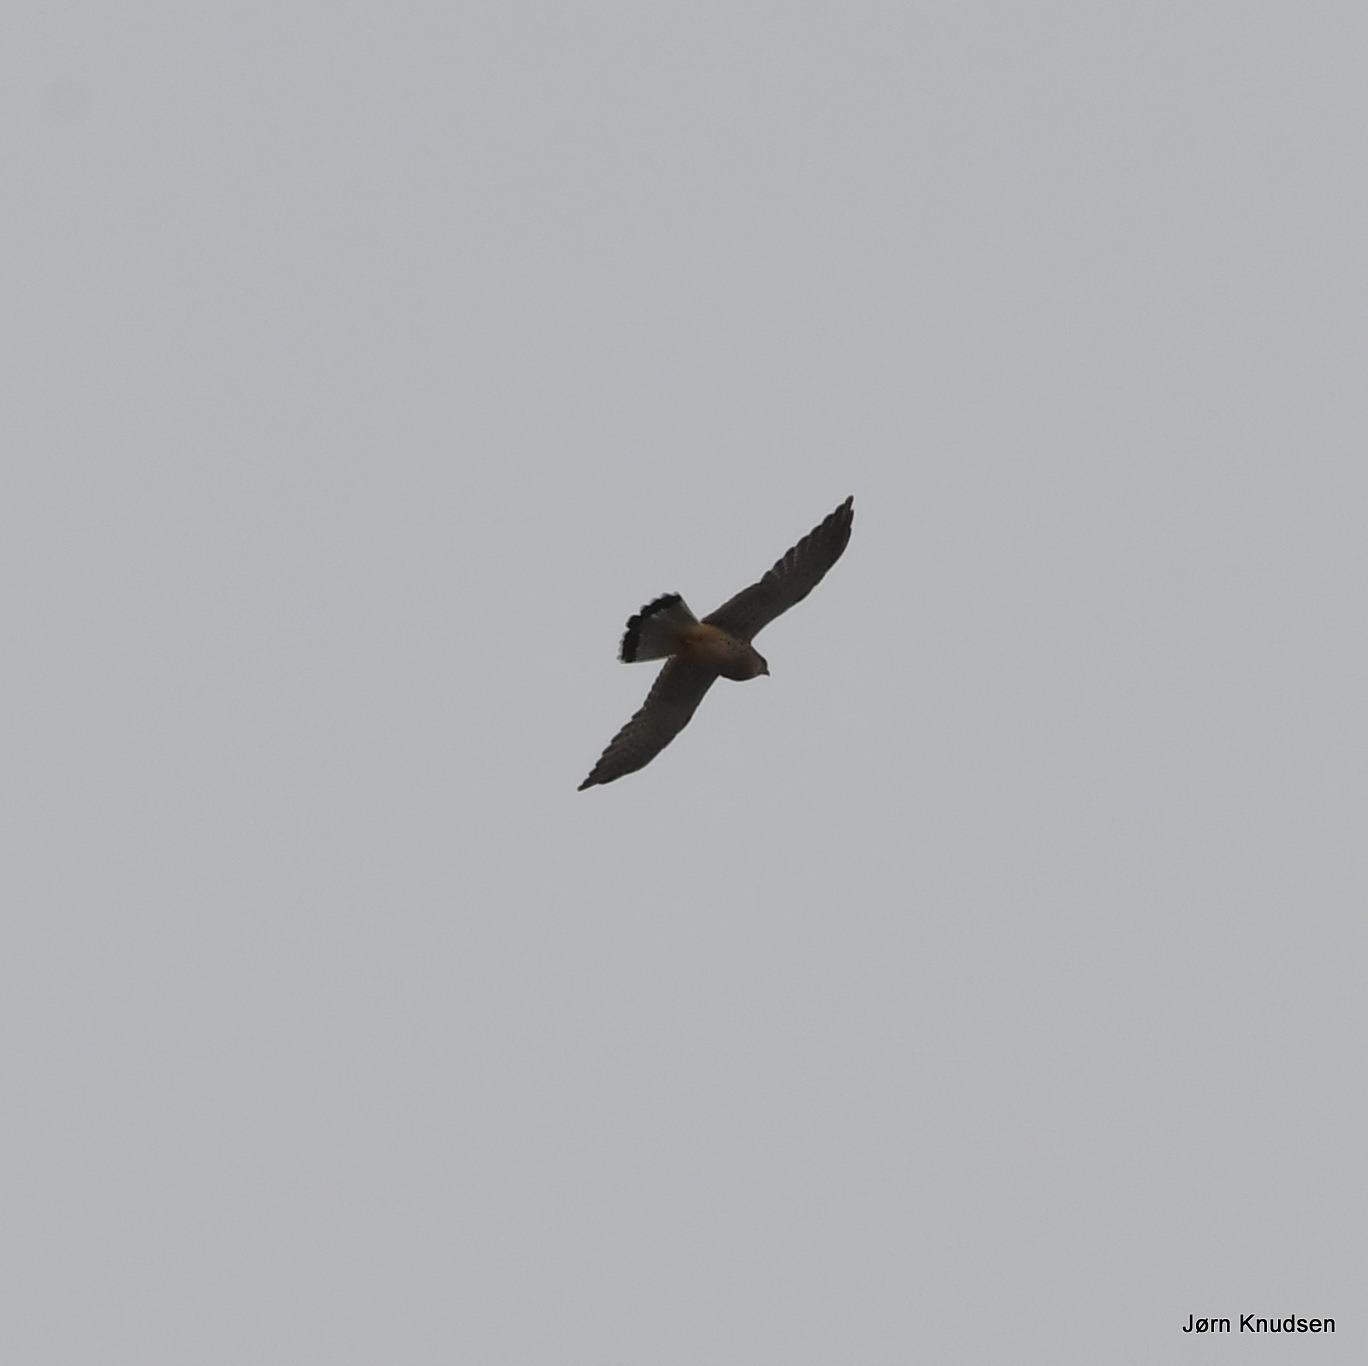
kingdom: Animalia
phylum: Chordata
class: Aves
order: Falconiformes
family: Falconidae
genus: Falco
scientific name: Falco tinnunculus
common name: Tårnfalk
